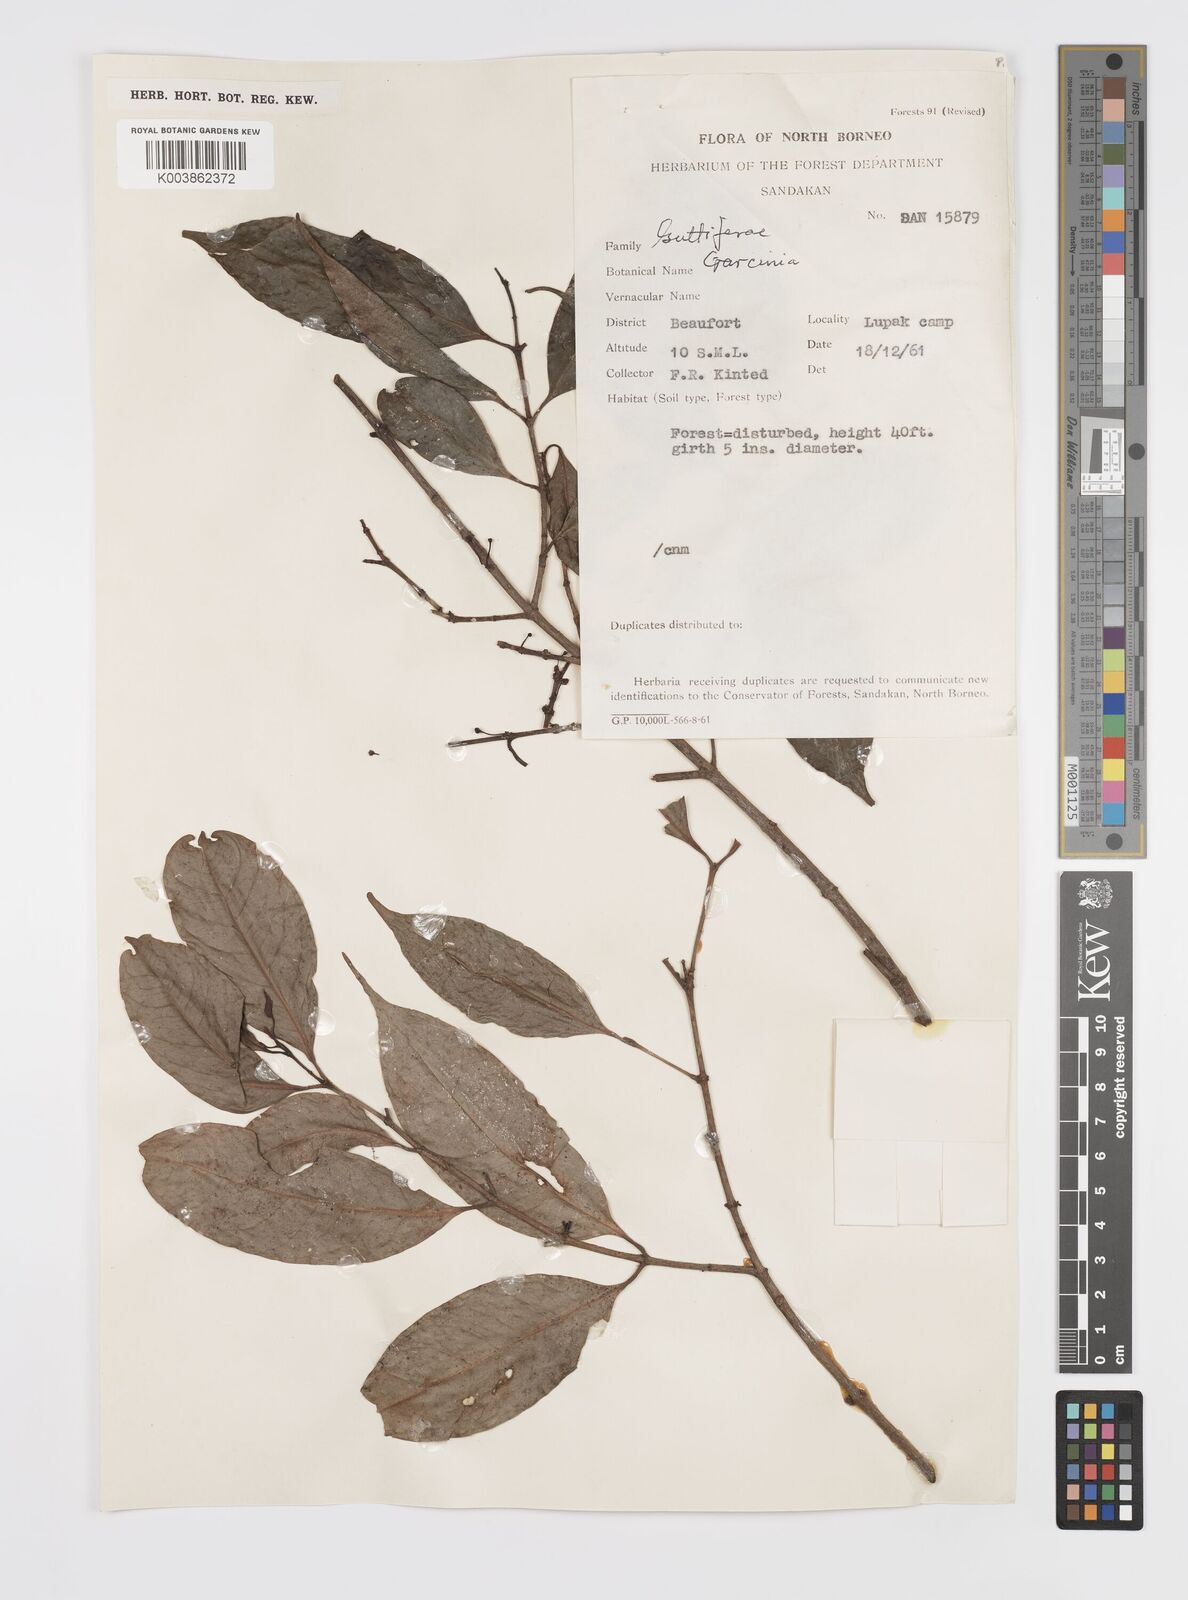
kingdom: Plantae
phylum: Tracheophyta
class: Magnoliopsida
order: Malpighiales
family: Clusiaceae
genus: Garcinia
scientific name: Garcinia
